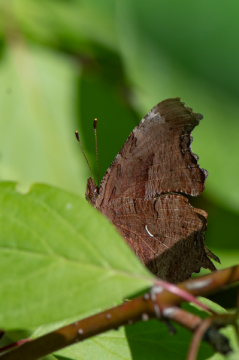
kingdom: Animalia
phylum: Arthropoda
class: Insecta
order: Lepidoptera
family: Nymphalidae
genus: Polygonia
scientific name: Polygonia comma
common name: Eastern Comma
